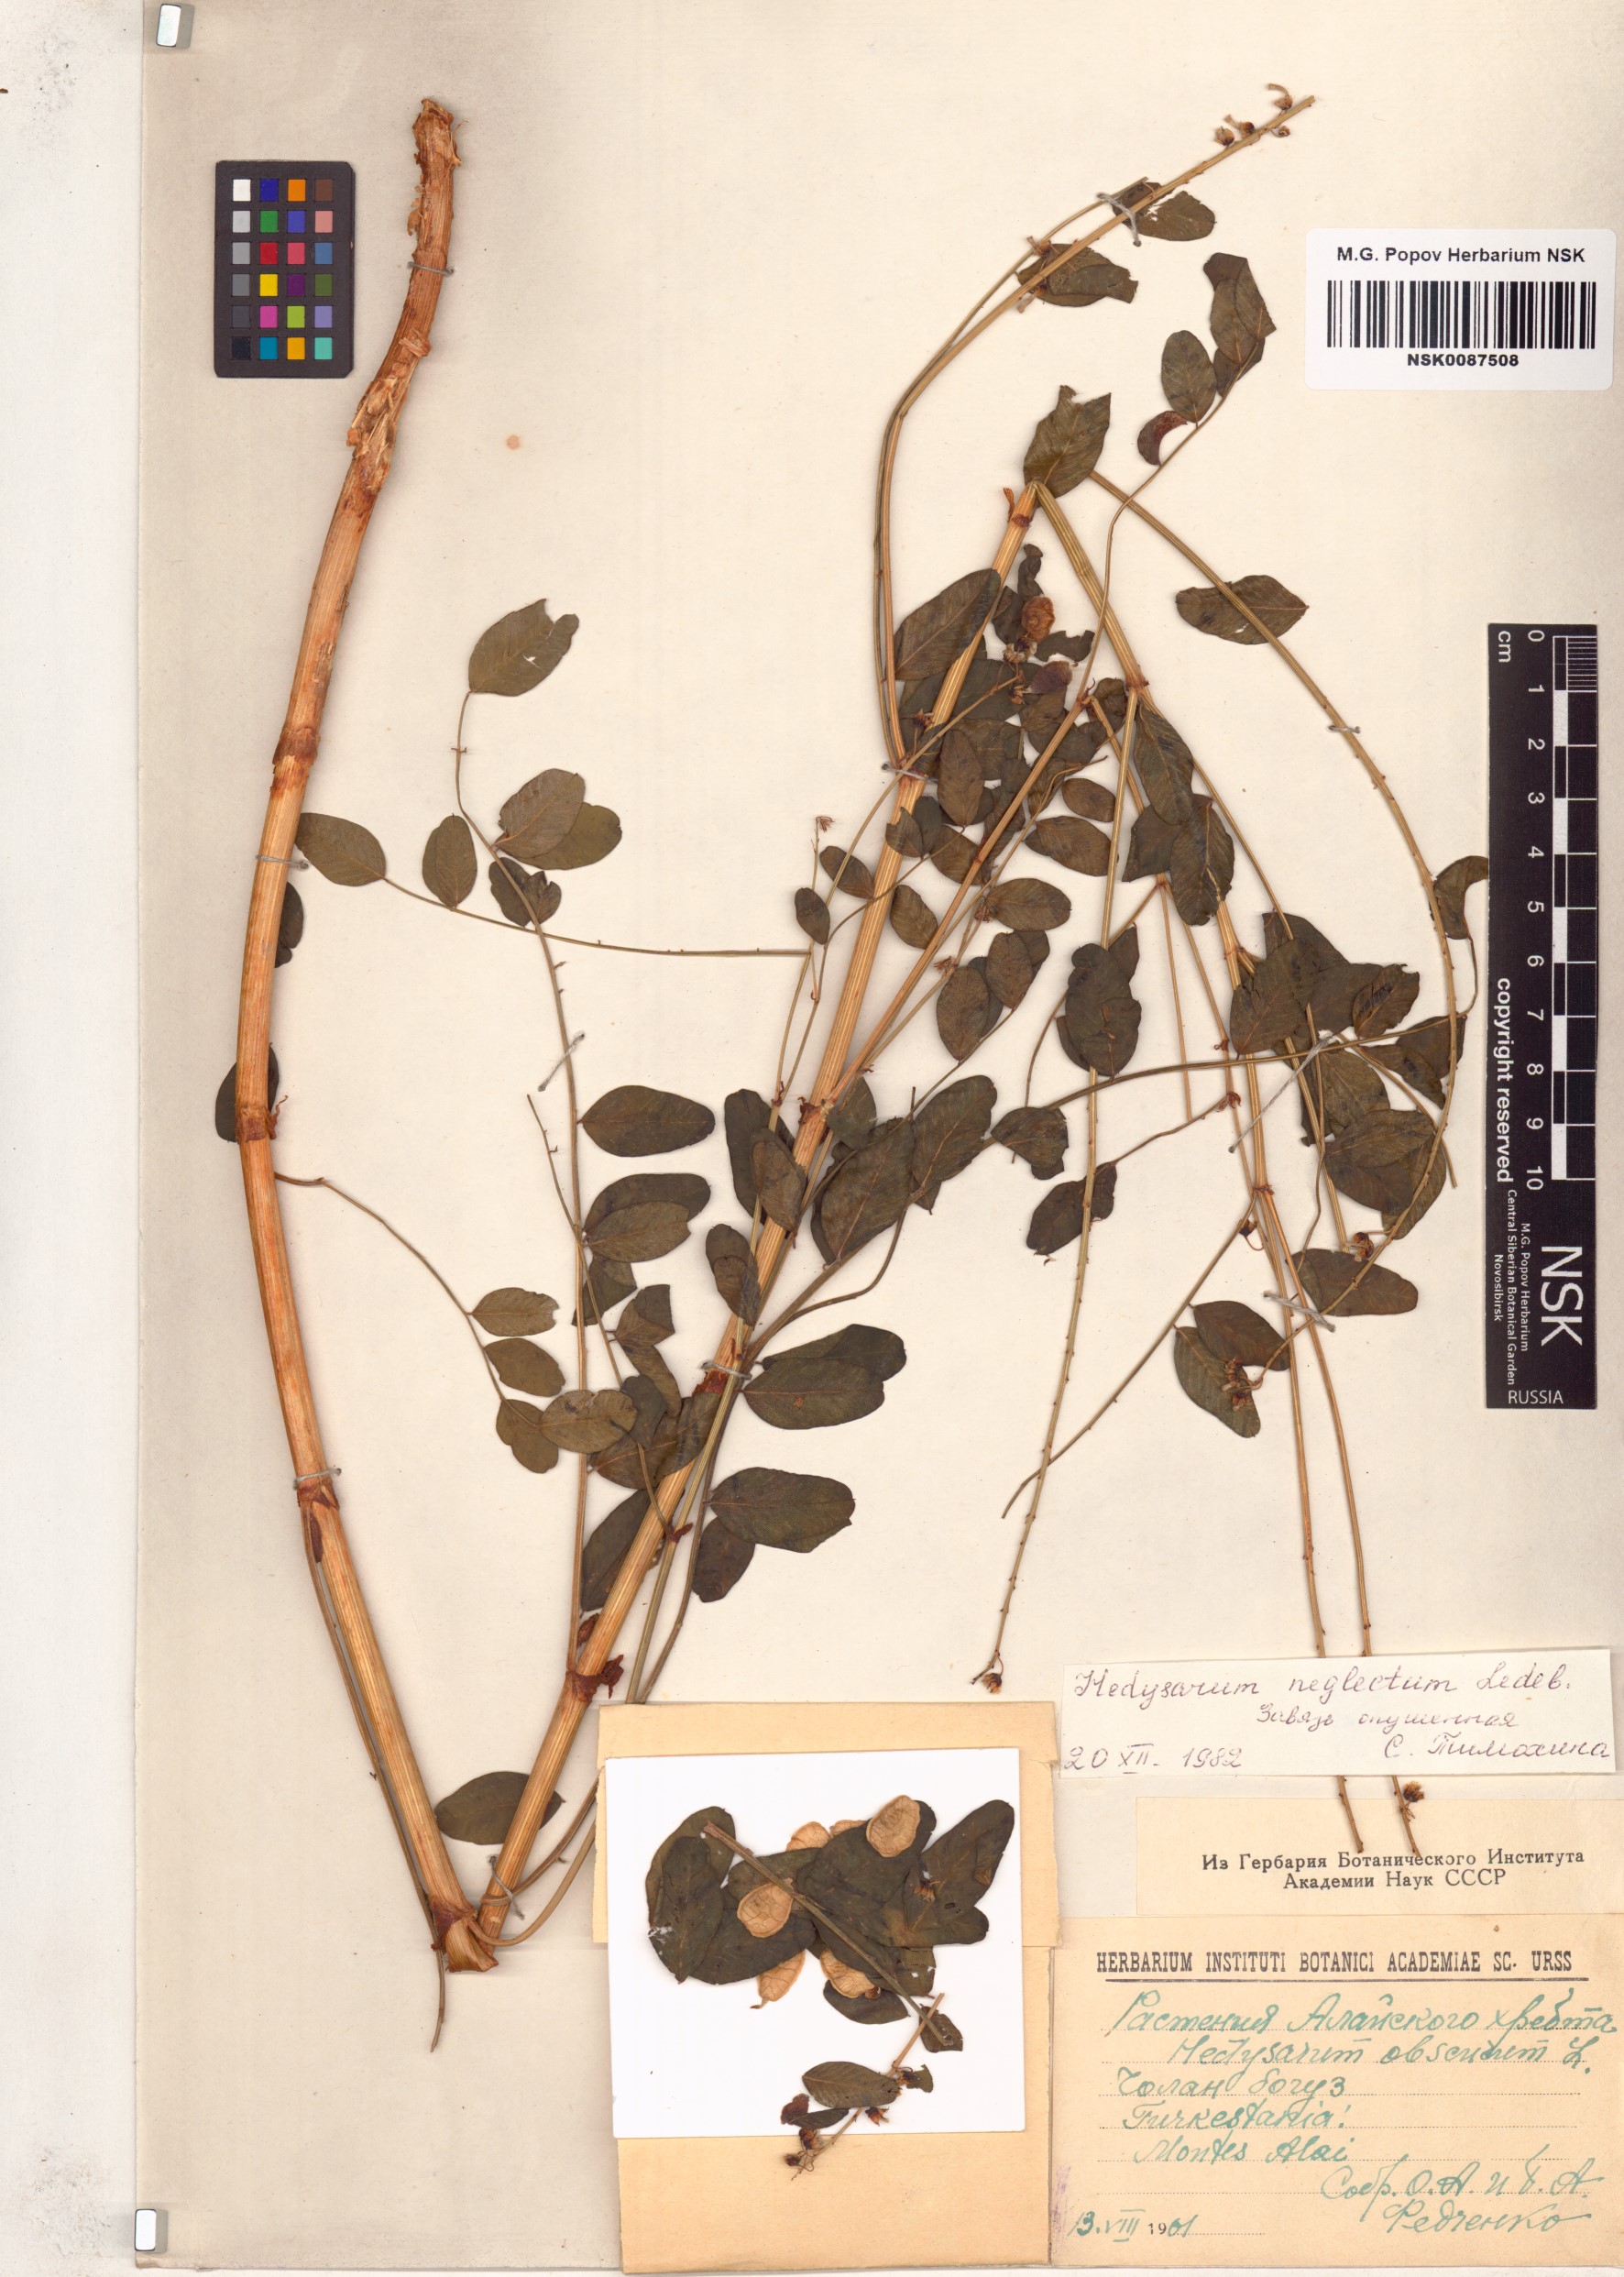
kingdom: Plantae
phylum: Tracheophyta
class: Magnoliopsida
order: Fabales
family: Fabaceae
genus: Hedysarum
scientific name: Hedysarum neglectum
